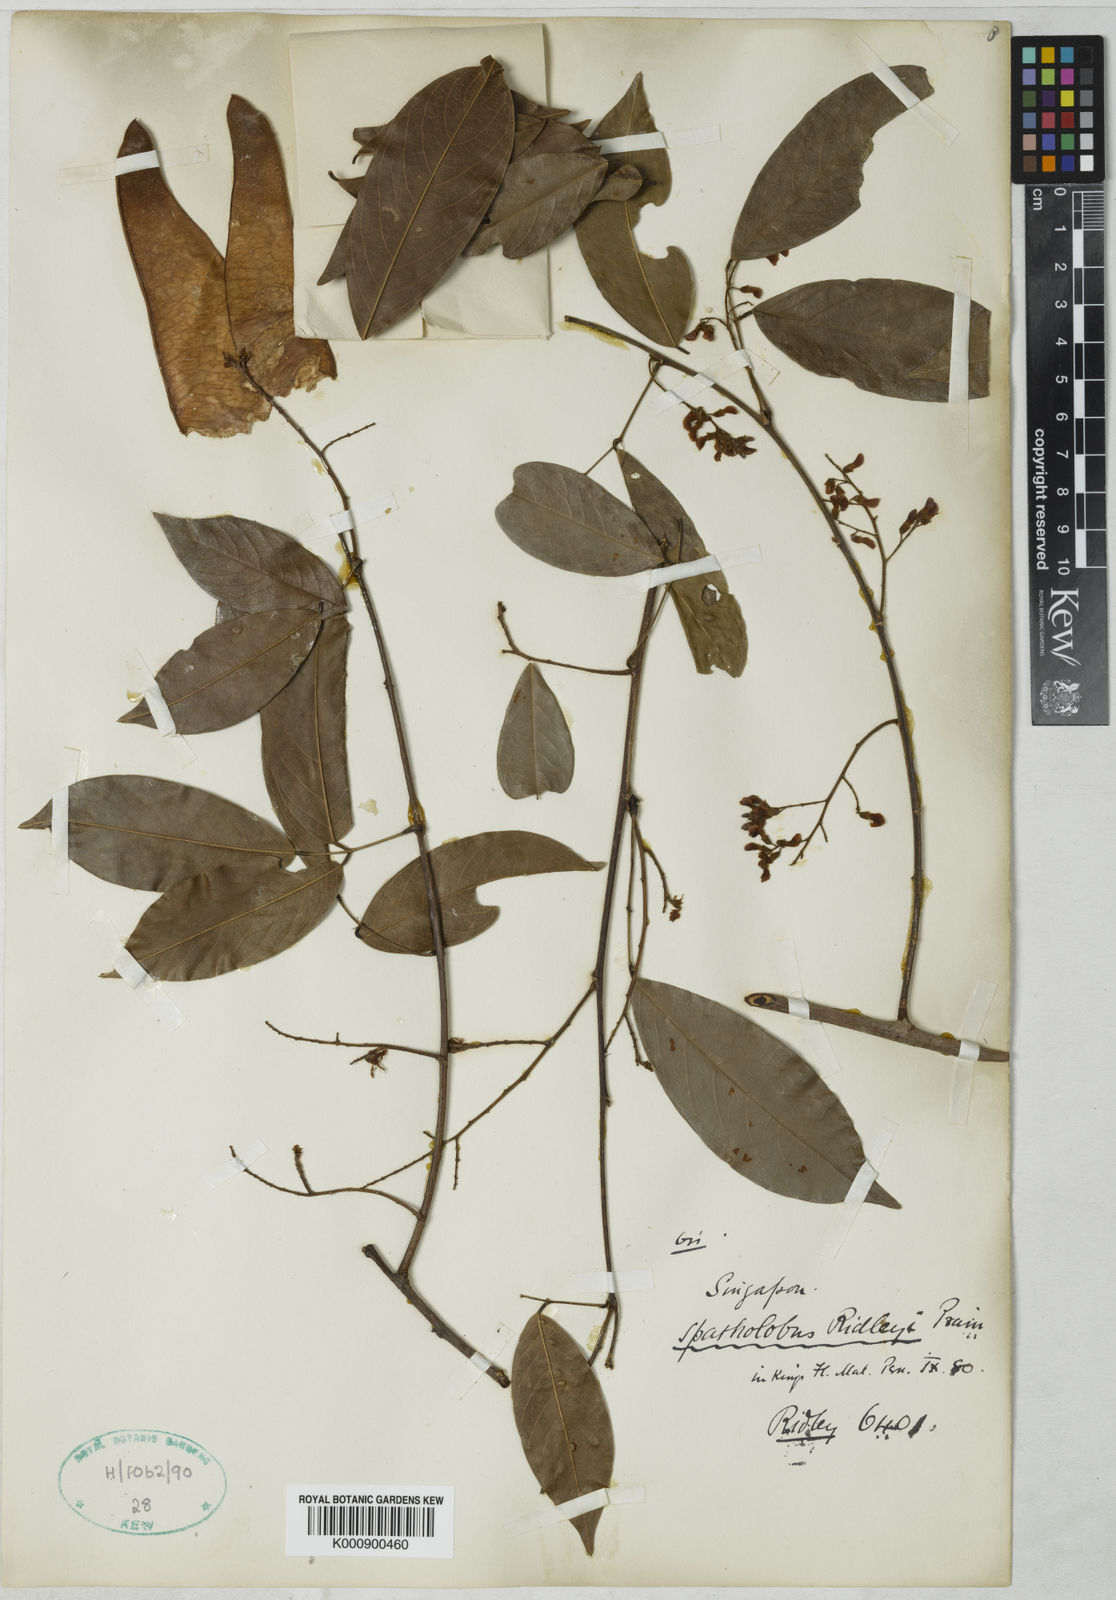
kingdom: Plantae
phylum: Tracheophyta
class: Magnoliopsida
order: Fabales
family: Fabaceae
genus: Spatholobus
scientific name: Spatholobus
